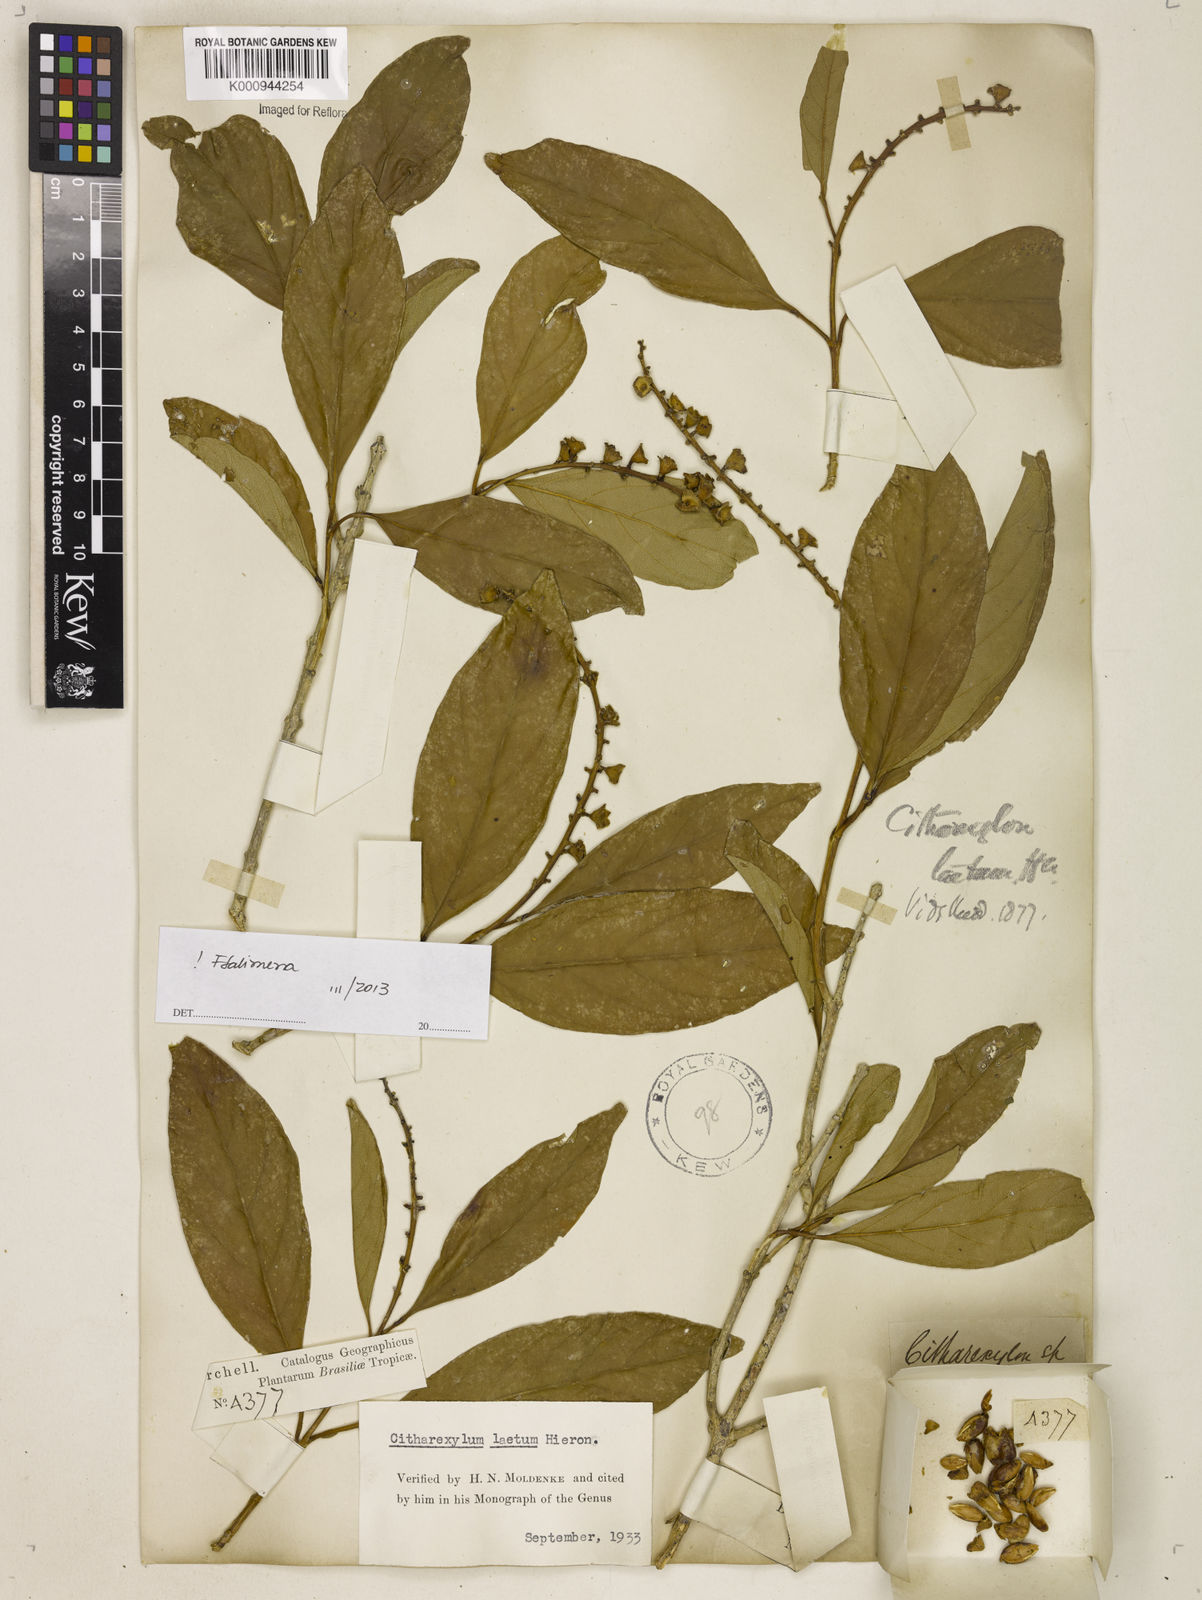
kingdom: Plantae
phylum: Tracheophyta
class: Magnoliopsida
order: Lamiales
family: Verbenaceae
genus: Citharexylum
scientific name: Citharexylum myrianthum
